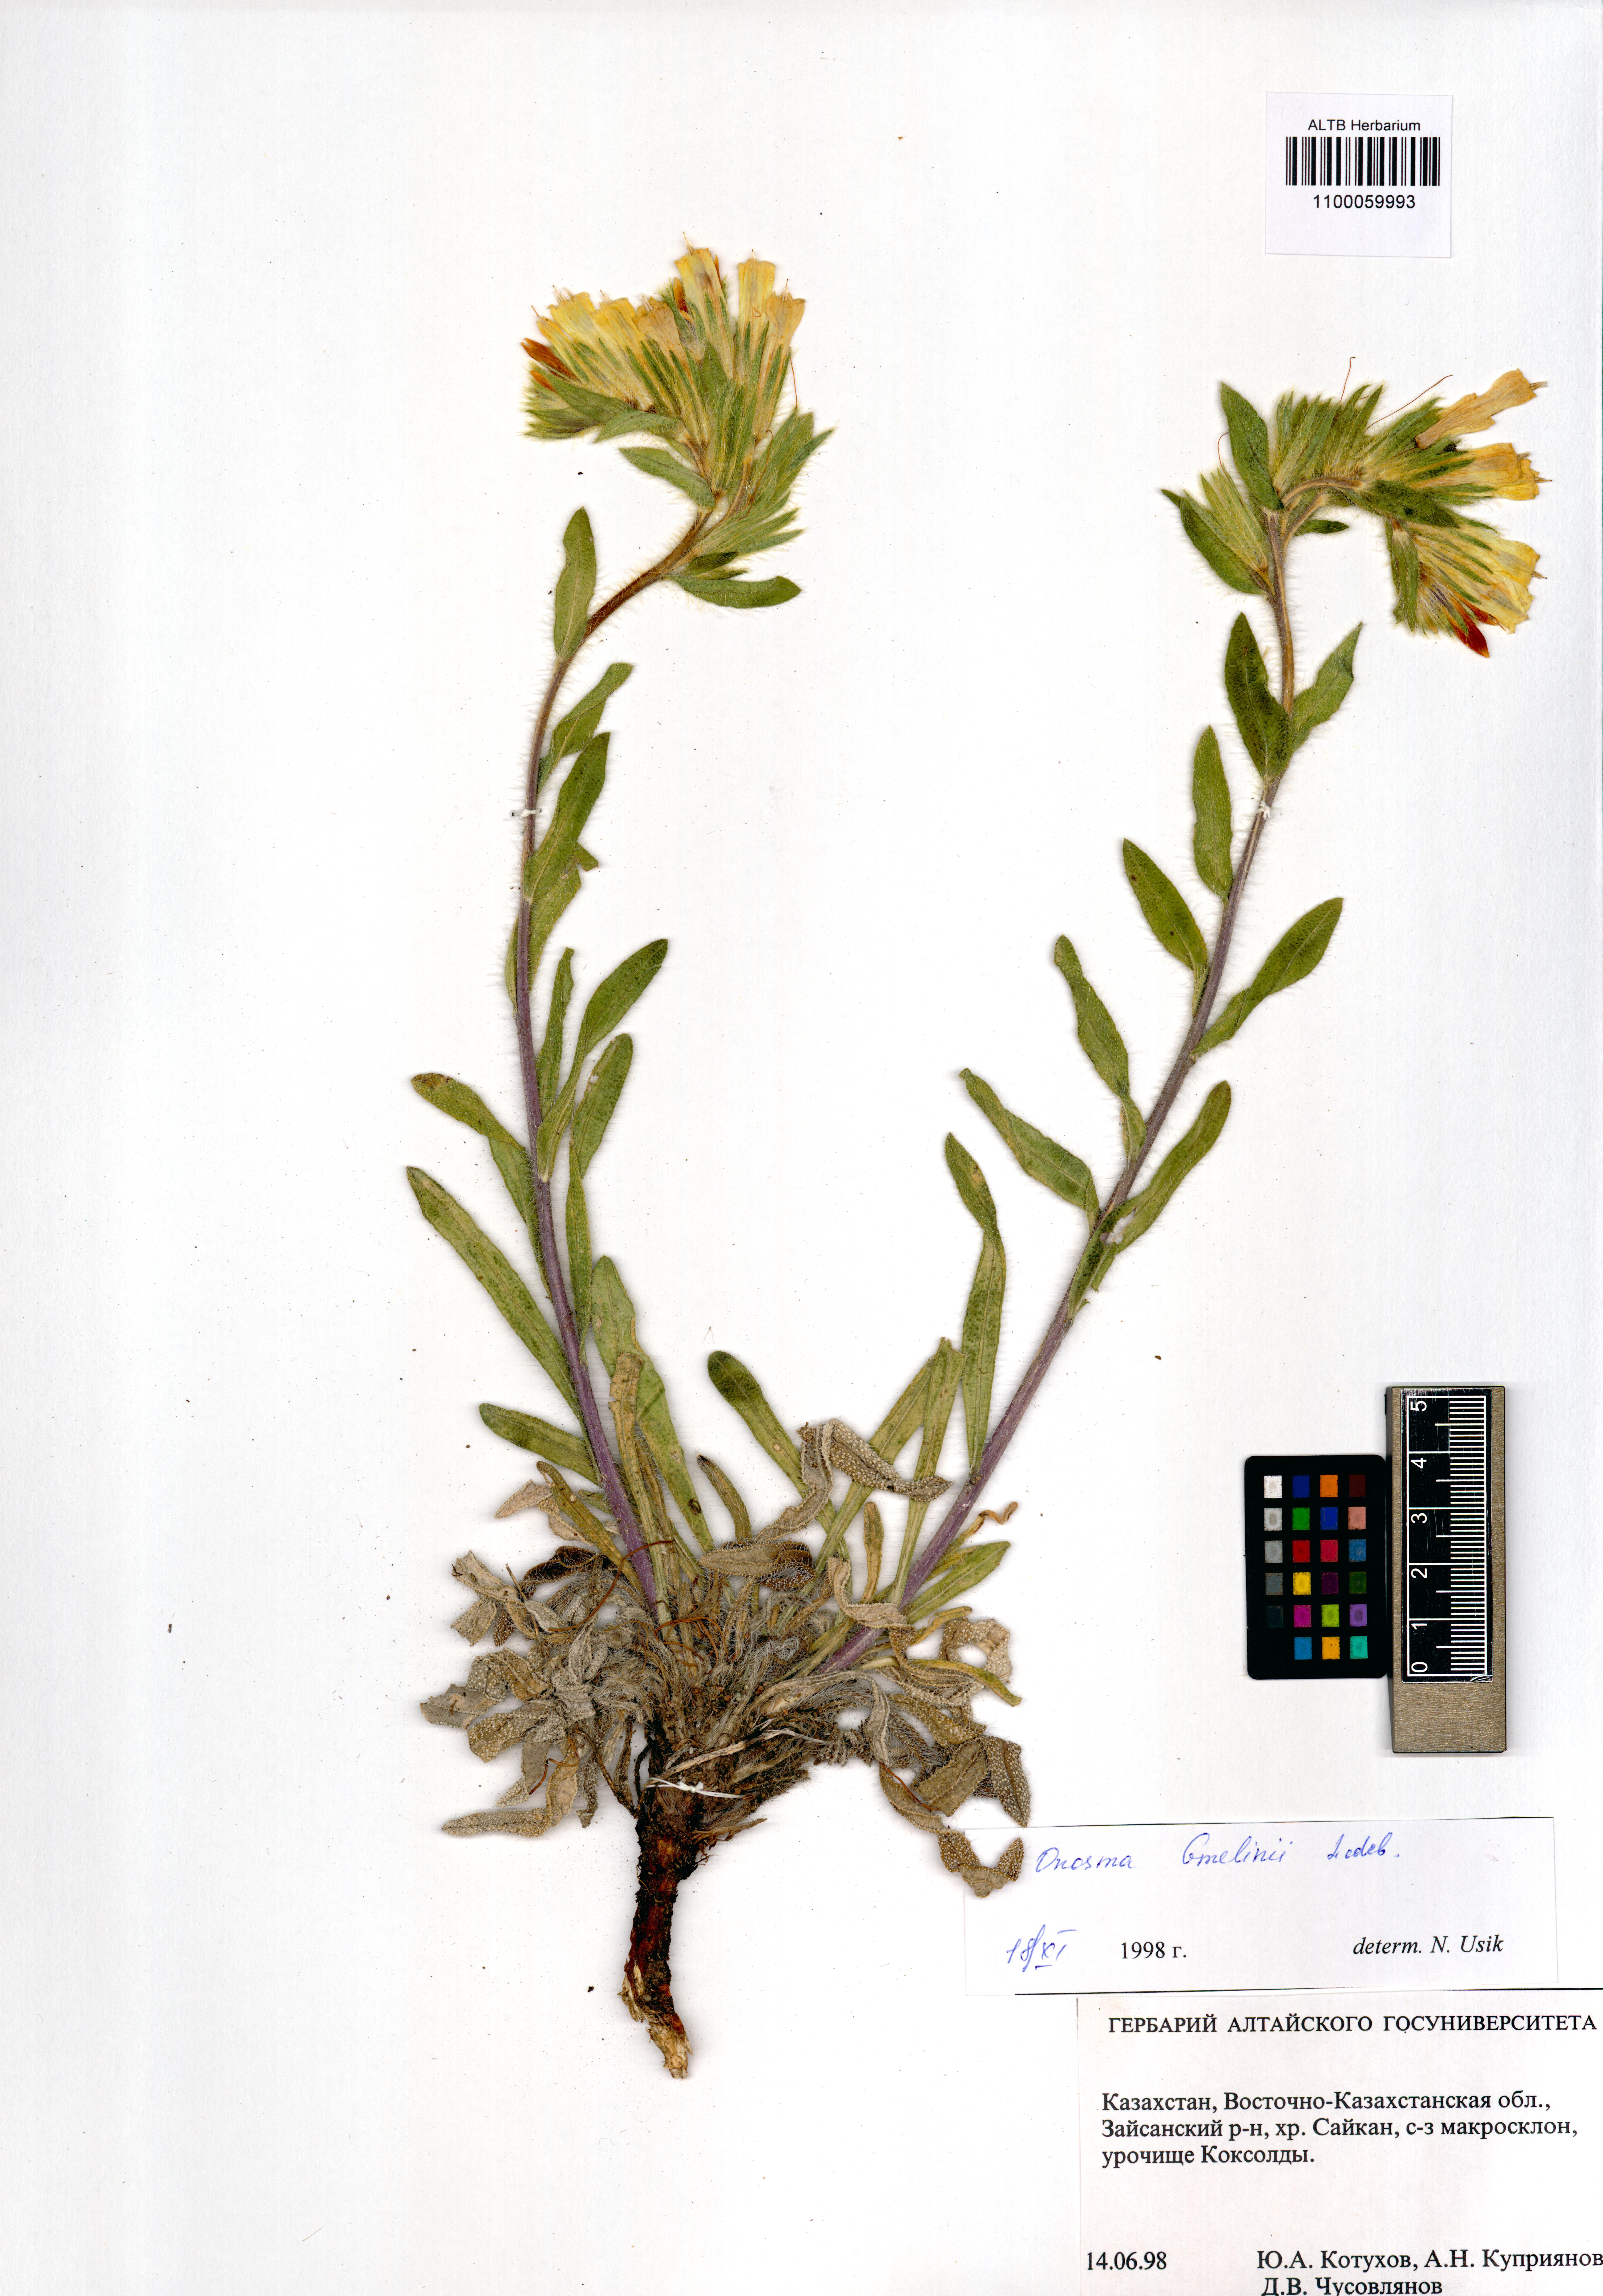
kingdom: Plantae
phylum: Tracheophyta
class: Magnoliopsida
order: Boraginales
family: Boraginaceae
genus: Onosma
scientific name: Onosma gmelinii
